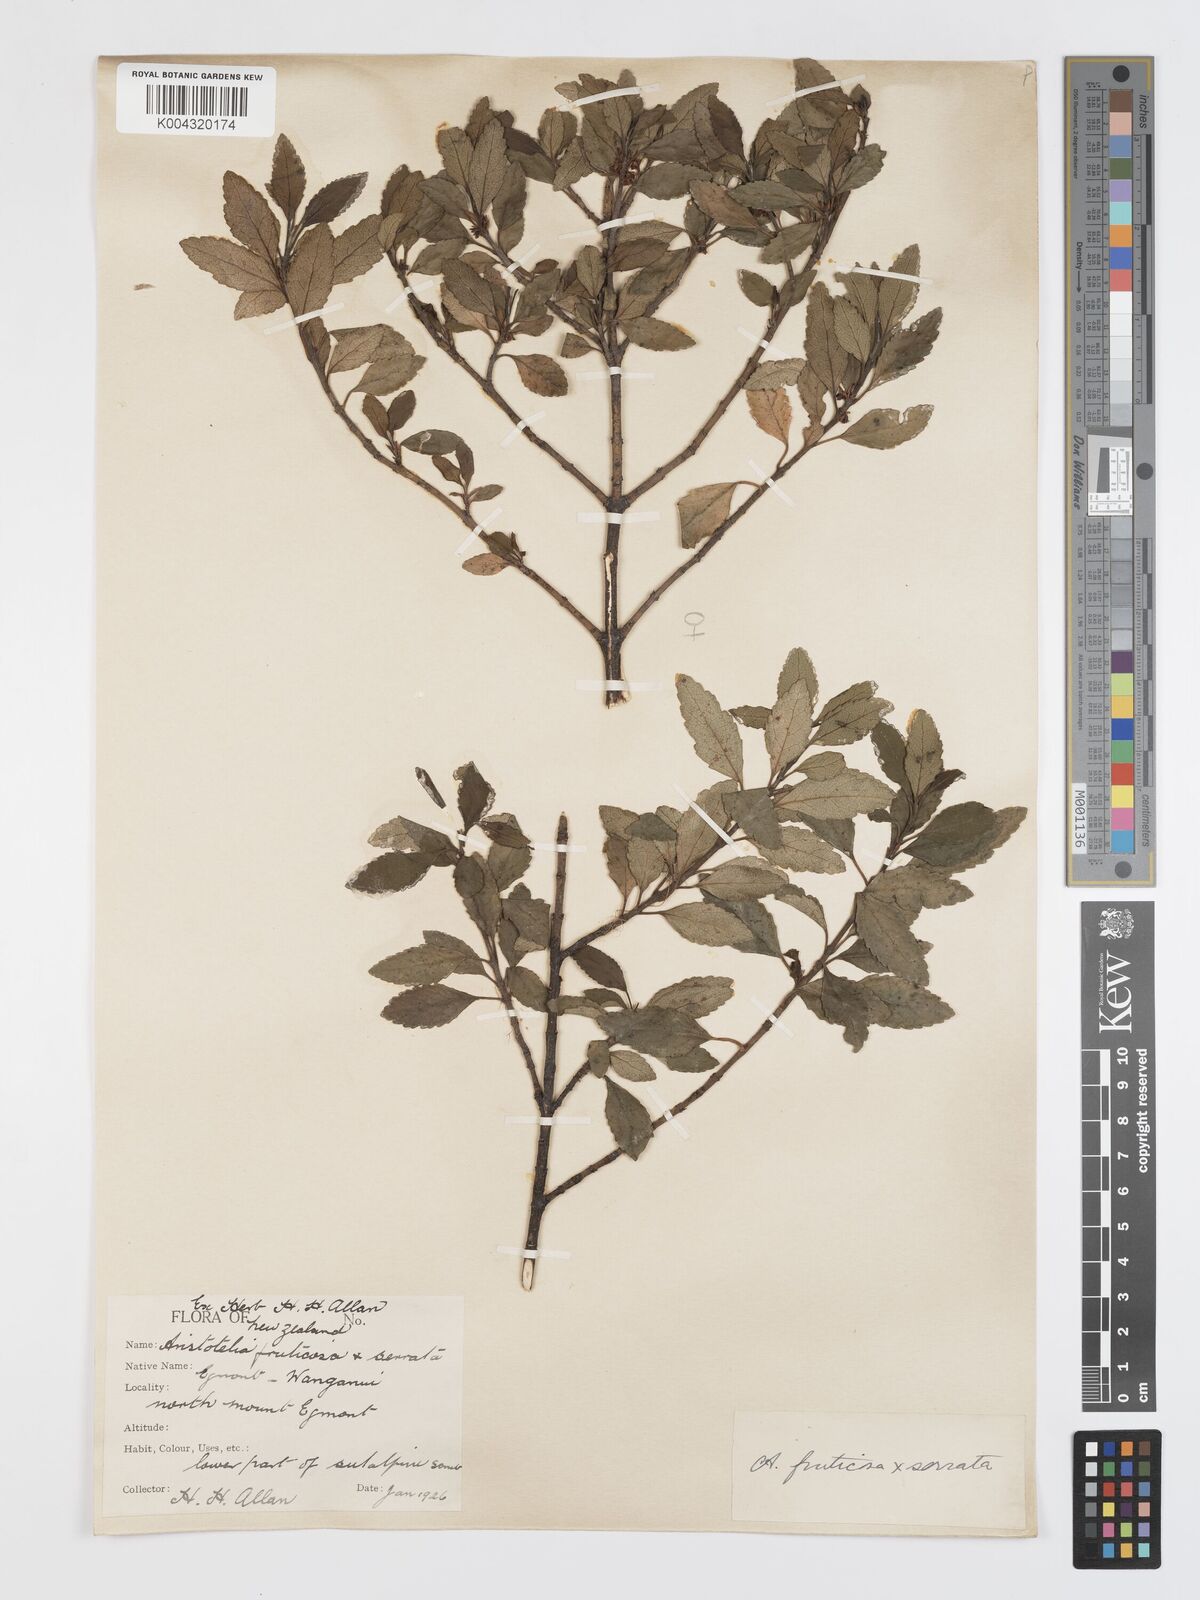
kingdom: Plantae
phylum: Tracheophyta
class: Magnoliopsida
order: Oxalidales
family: Elaeocarpaceae
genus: Aristotelia
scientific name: Aristotelia fruticosa
